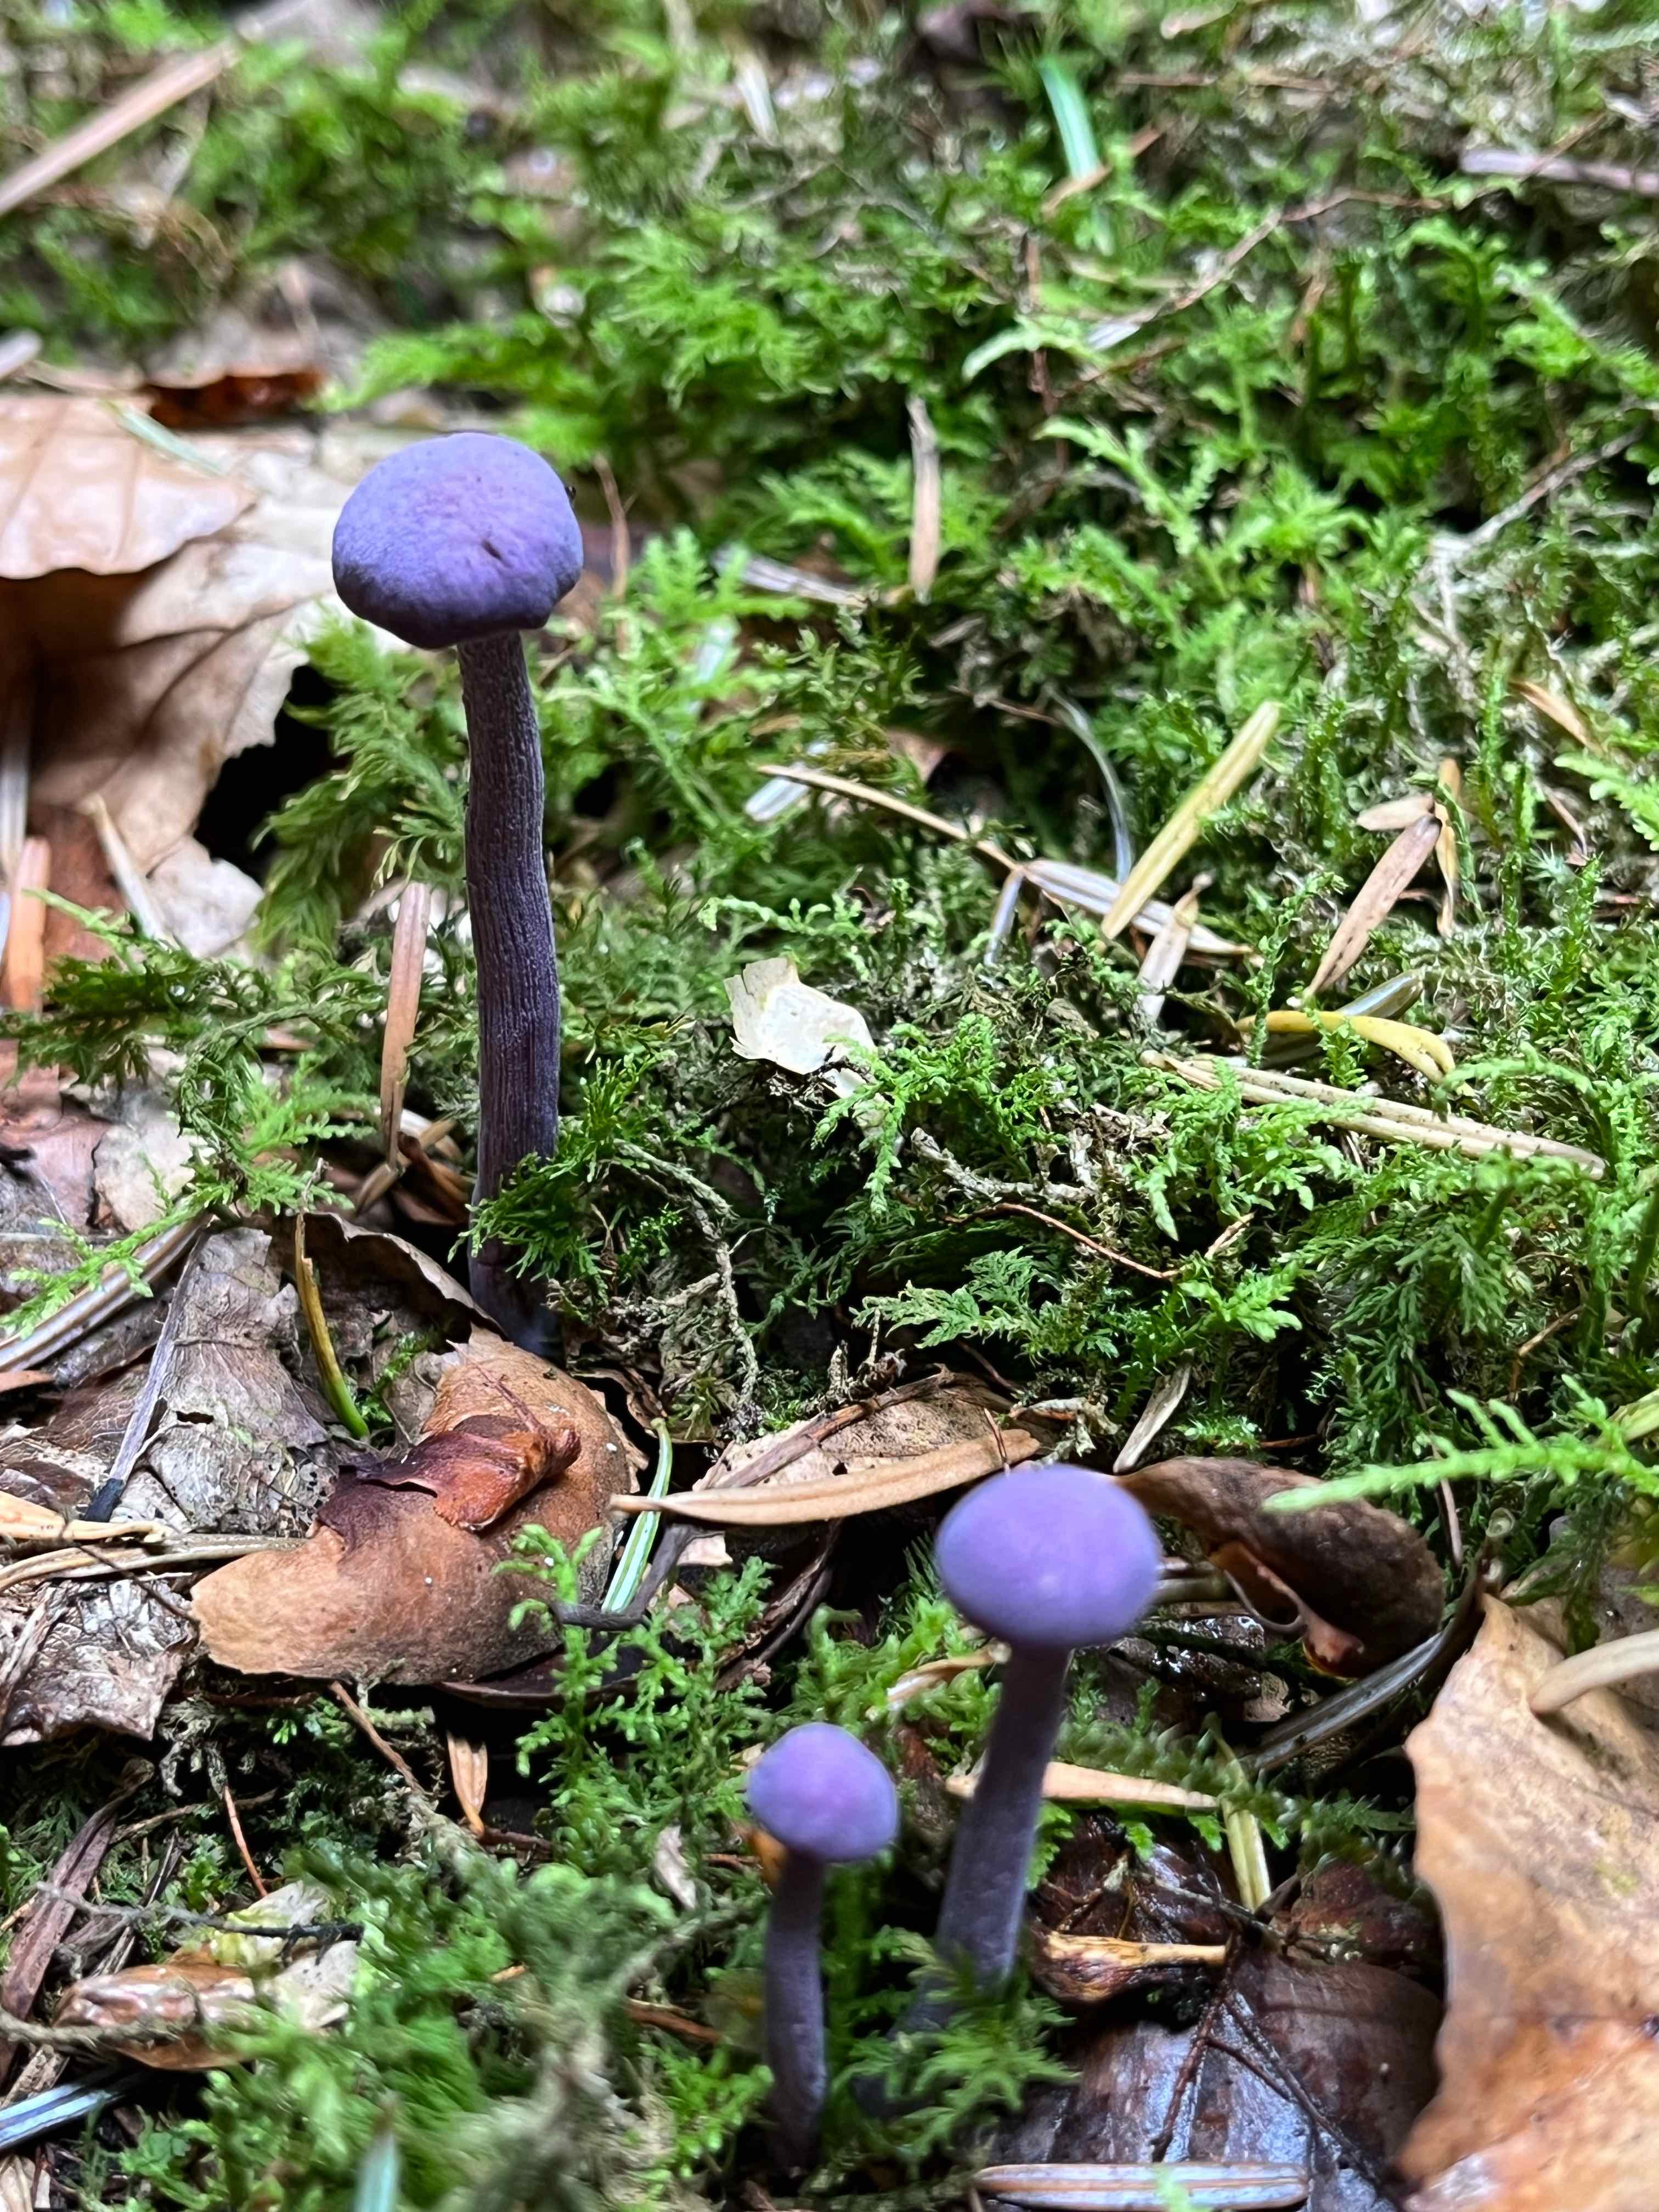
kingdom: Fungi
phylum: Basidiomycota
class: Agaricomycetes
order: Agaricales
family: Hydnangiaceae
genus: Laccaria
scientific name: Laccaria amethystina
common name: violet ametysthat
